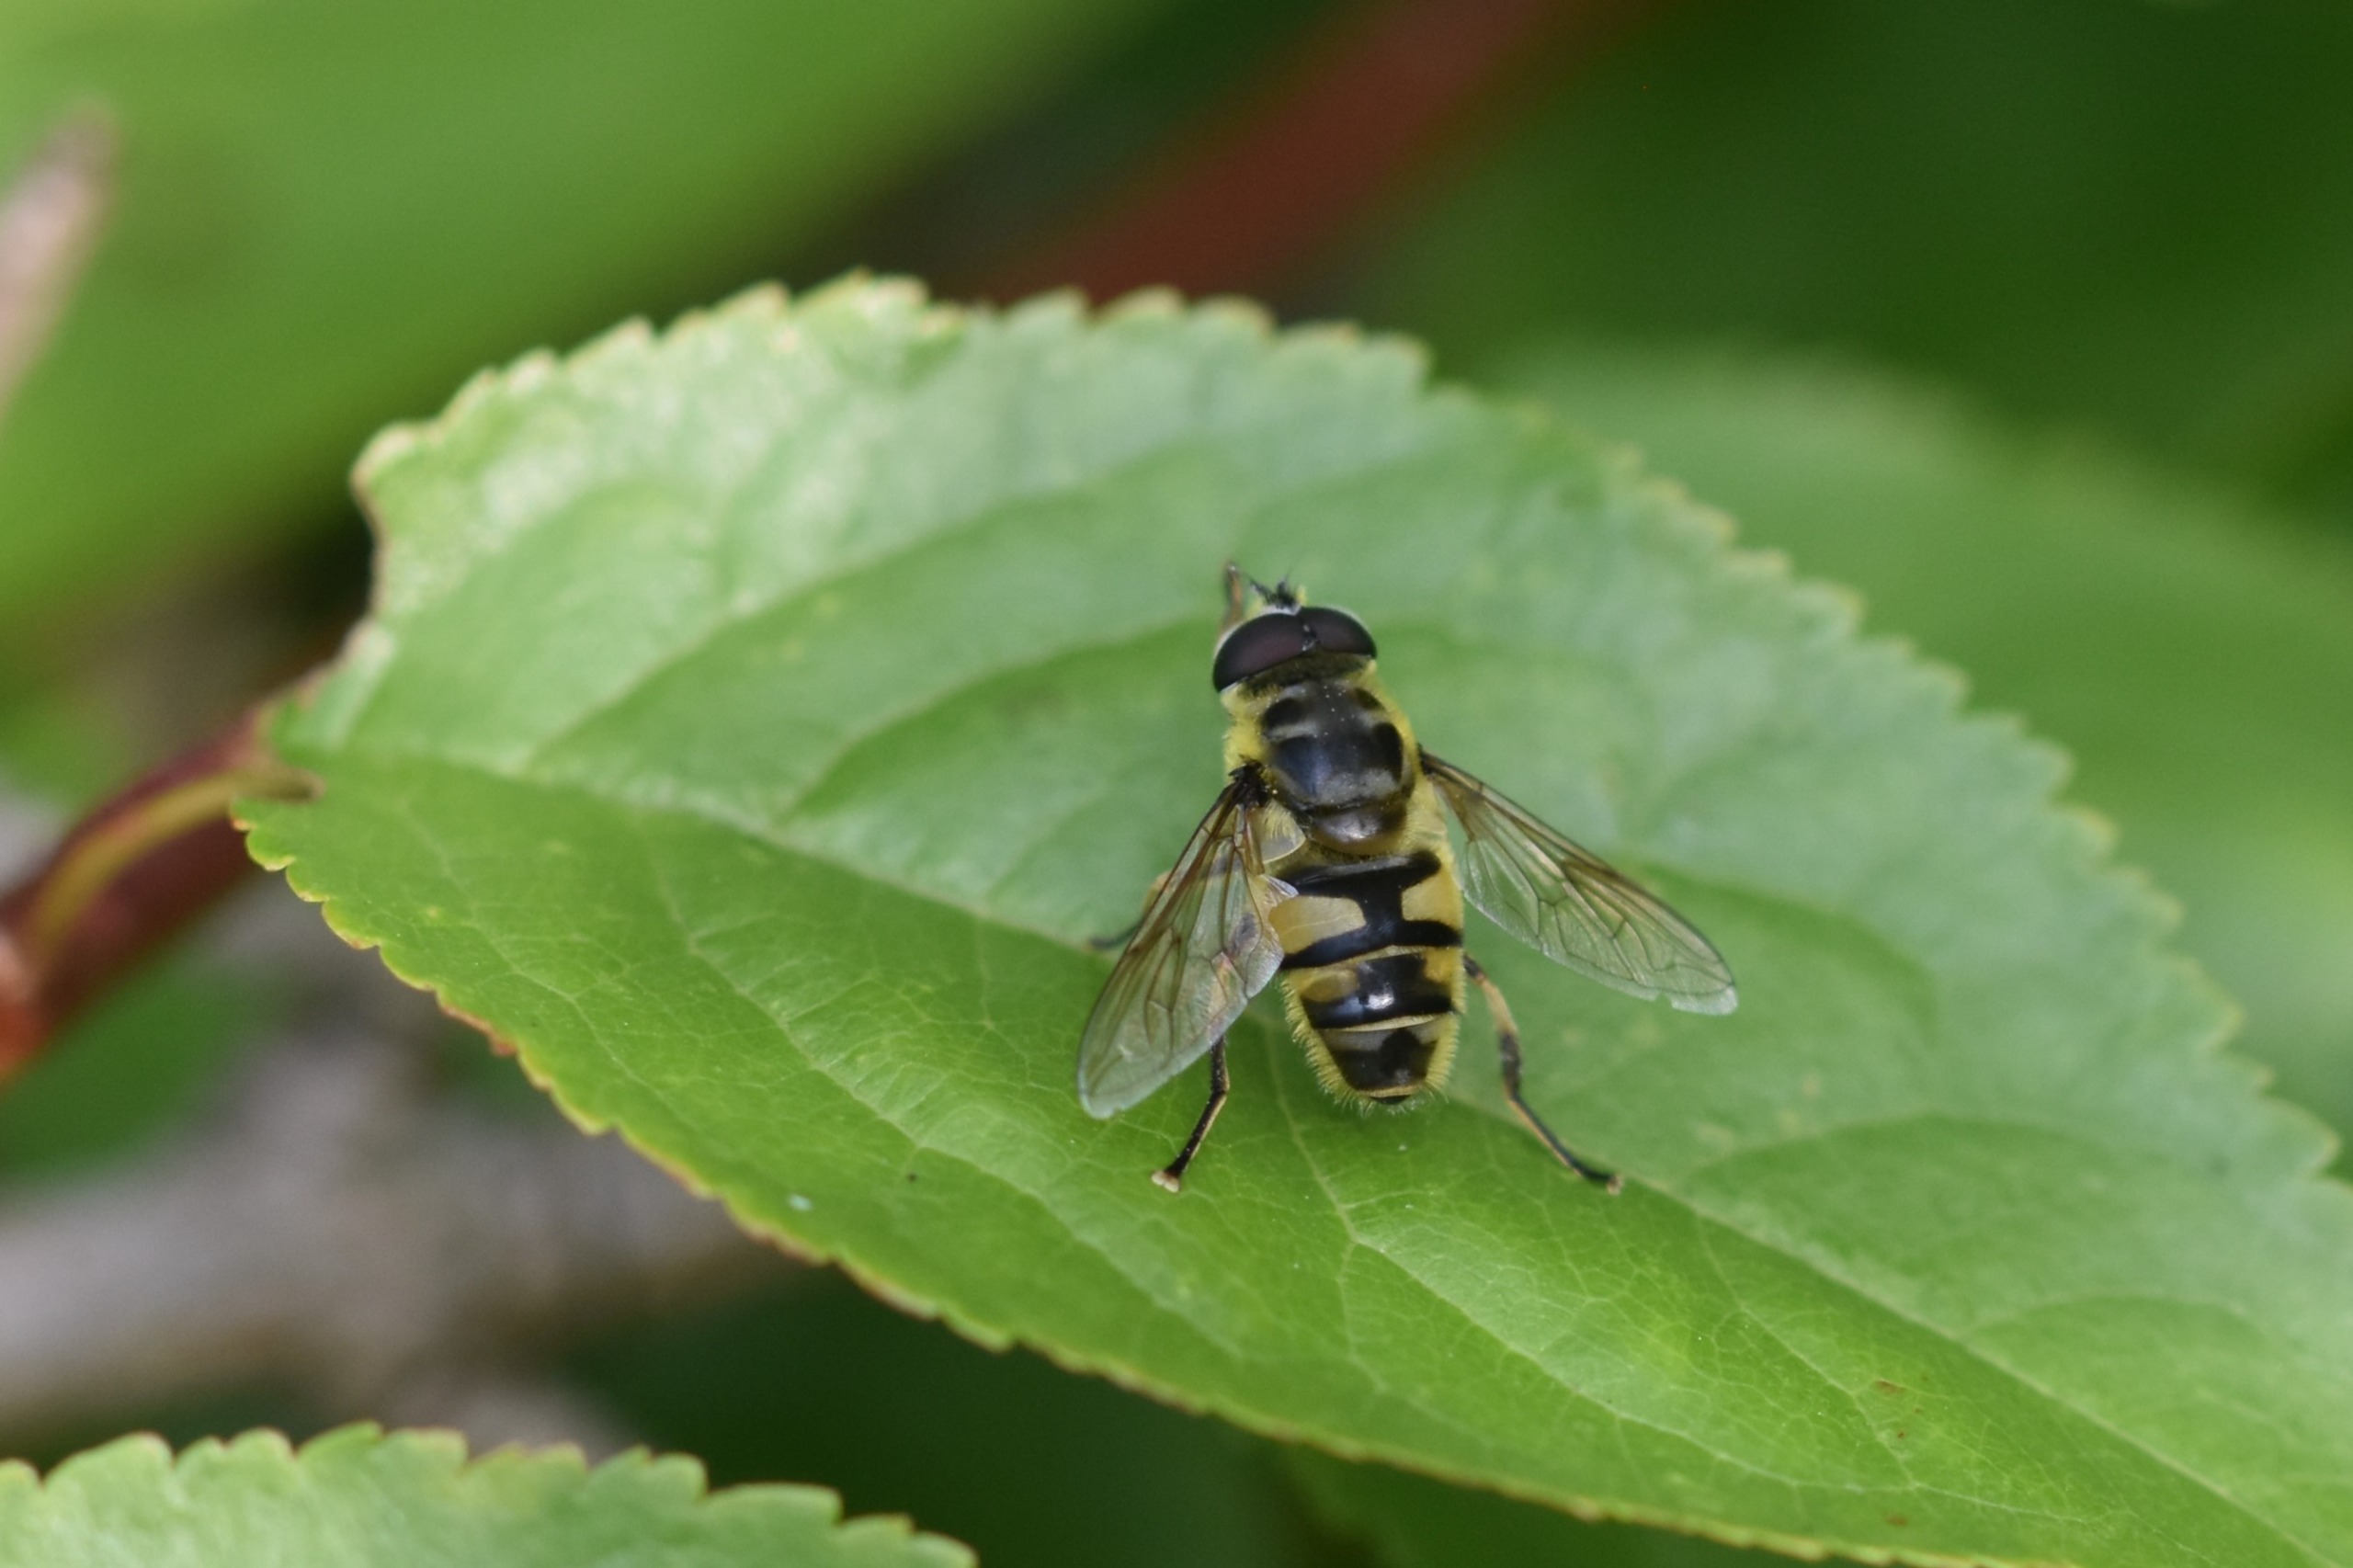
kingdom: Animalia
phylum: Arthropoda
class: Insecta
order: Diptera
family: Syrphidae
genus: Myathropa
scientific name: Myathropa florea
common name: Dødningehoved-svirreflue
